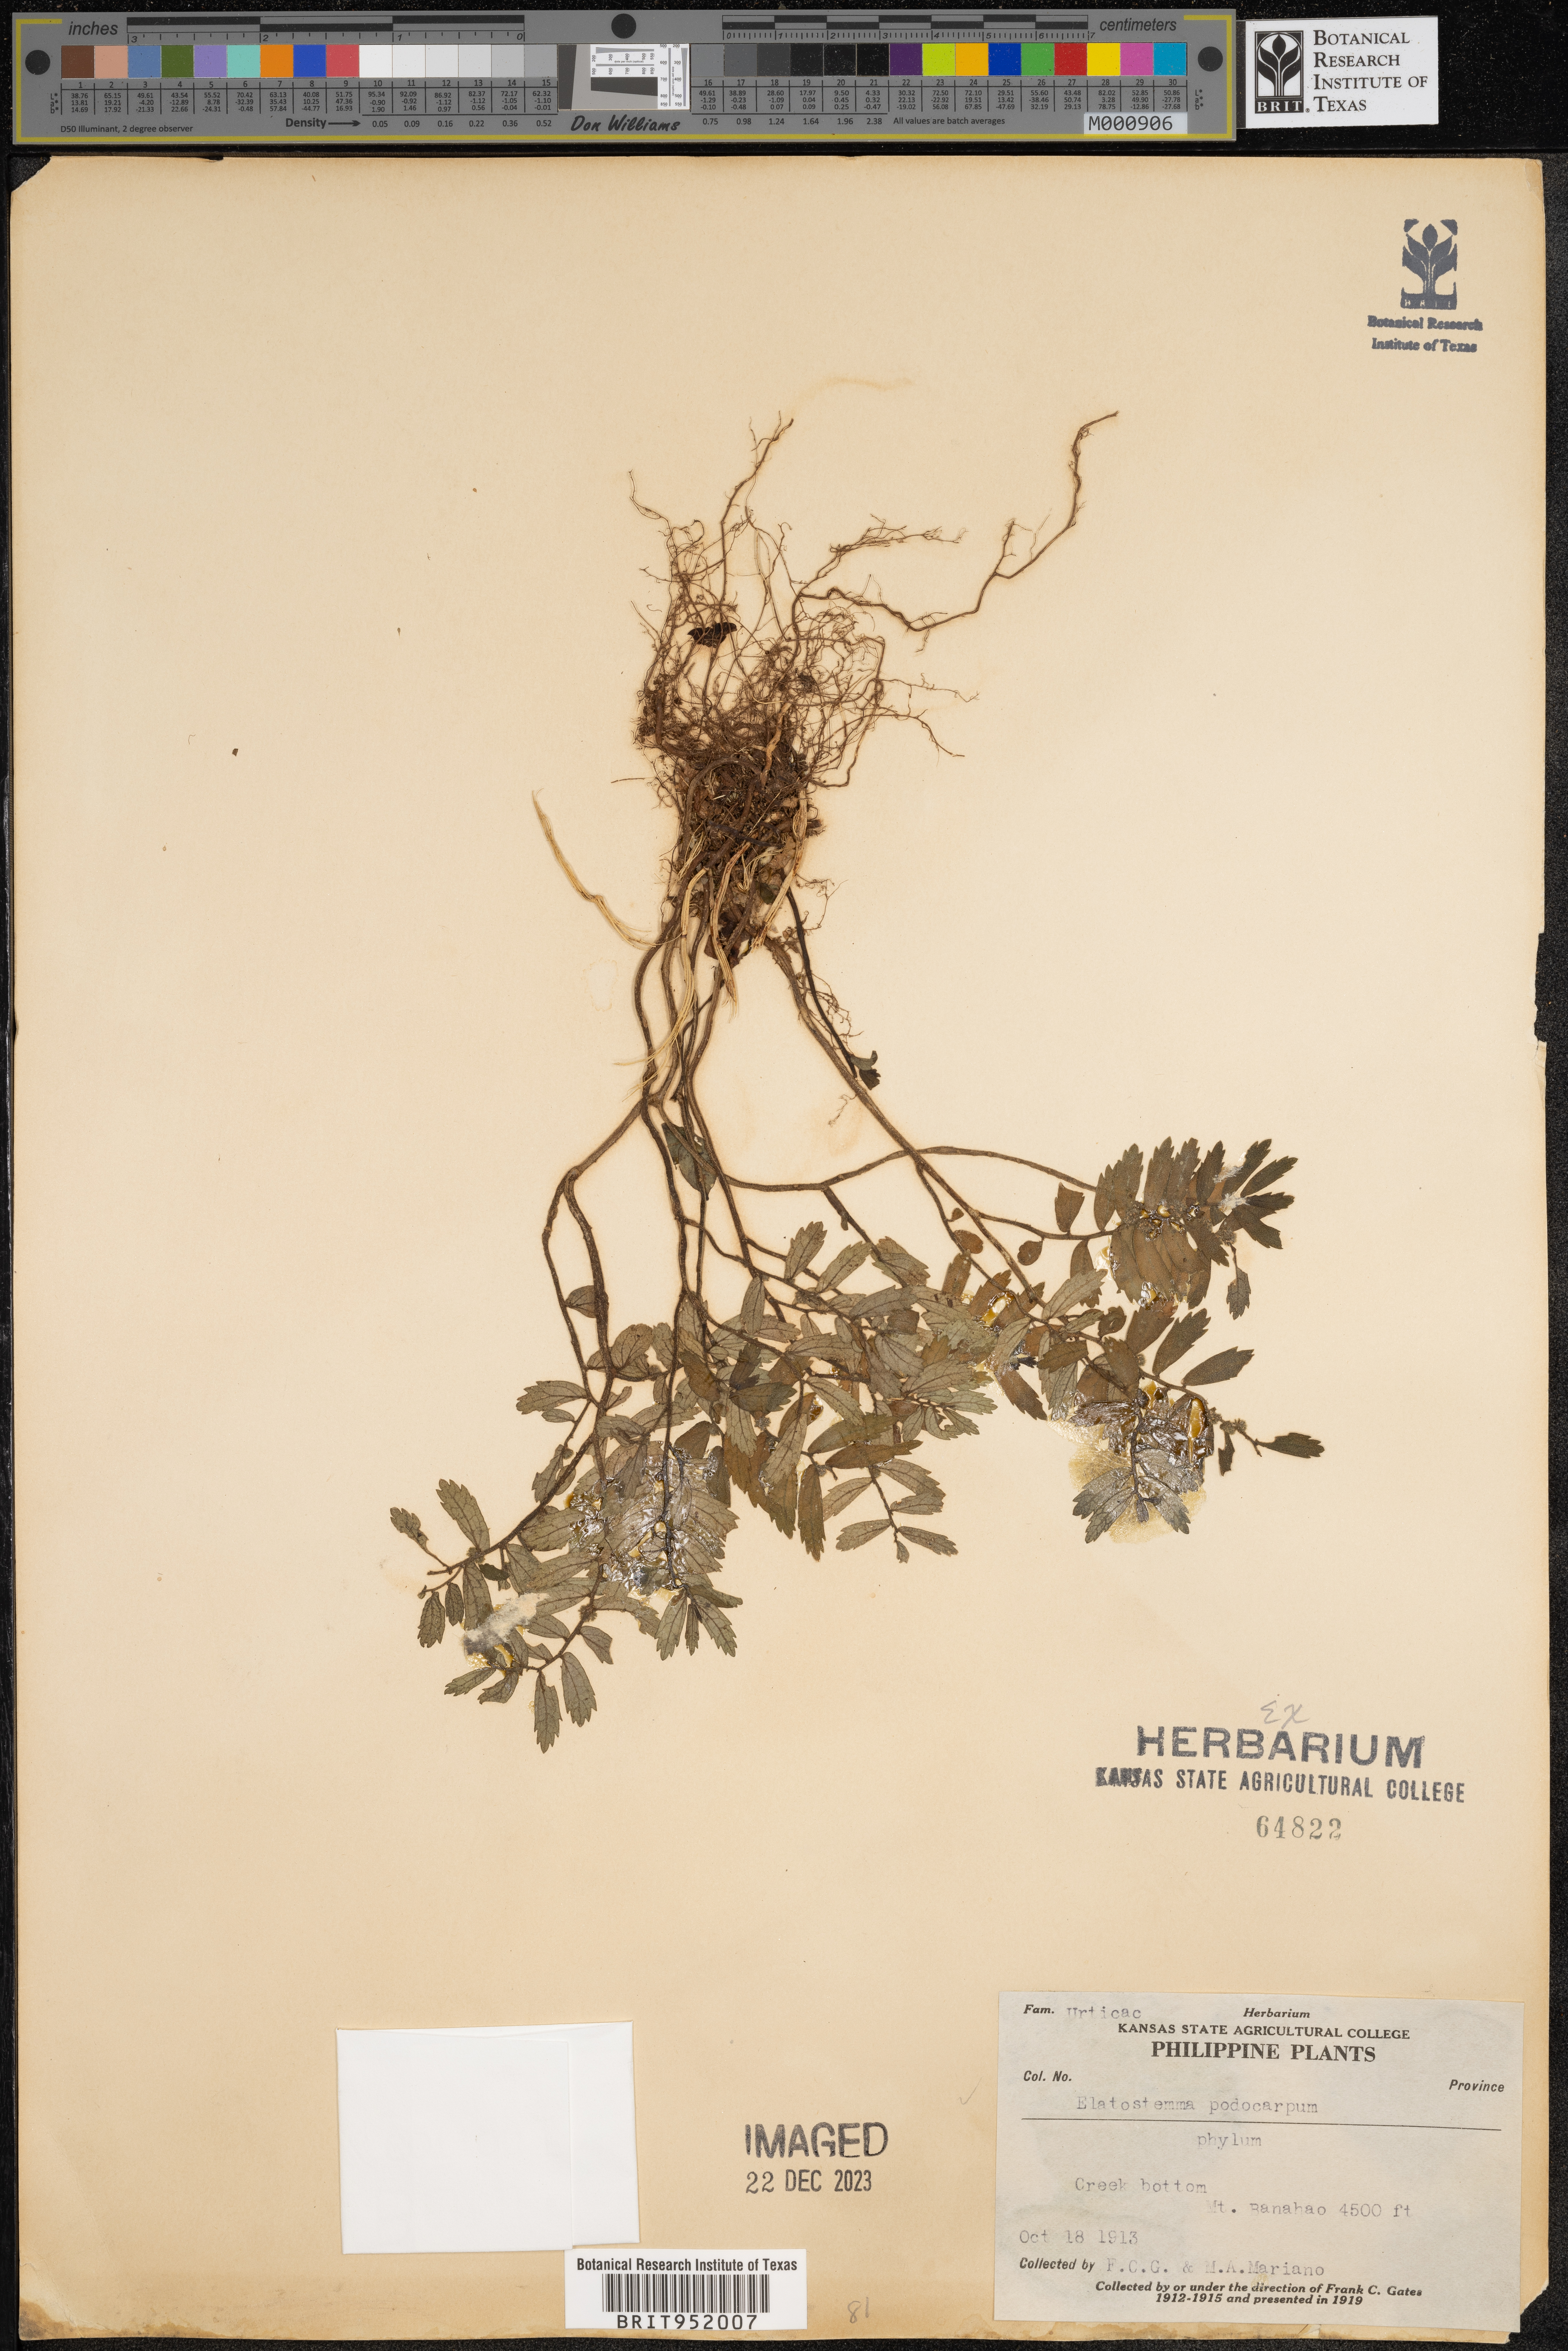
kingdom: Plantae
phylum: Tracheophyta
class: Magnoliopsida
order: Rosales
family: Urticaceae
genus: Elatostema
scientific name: Elatostema
